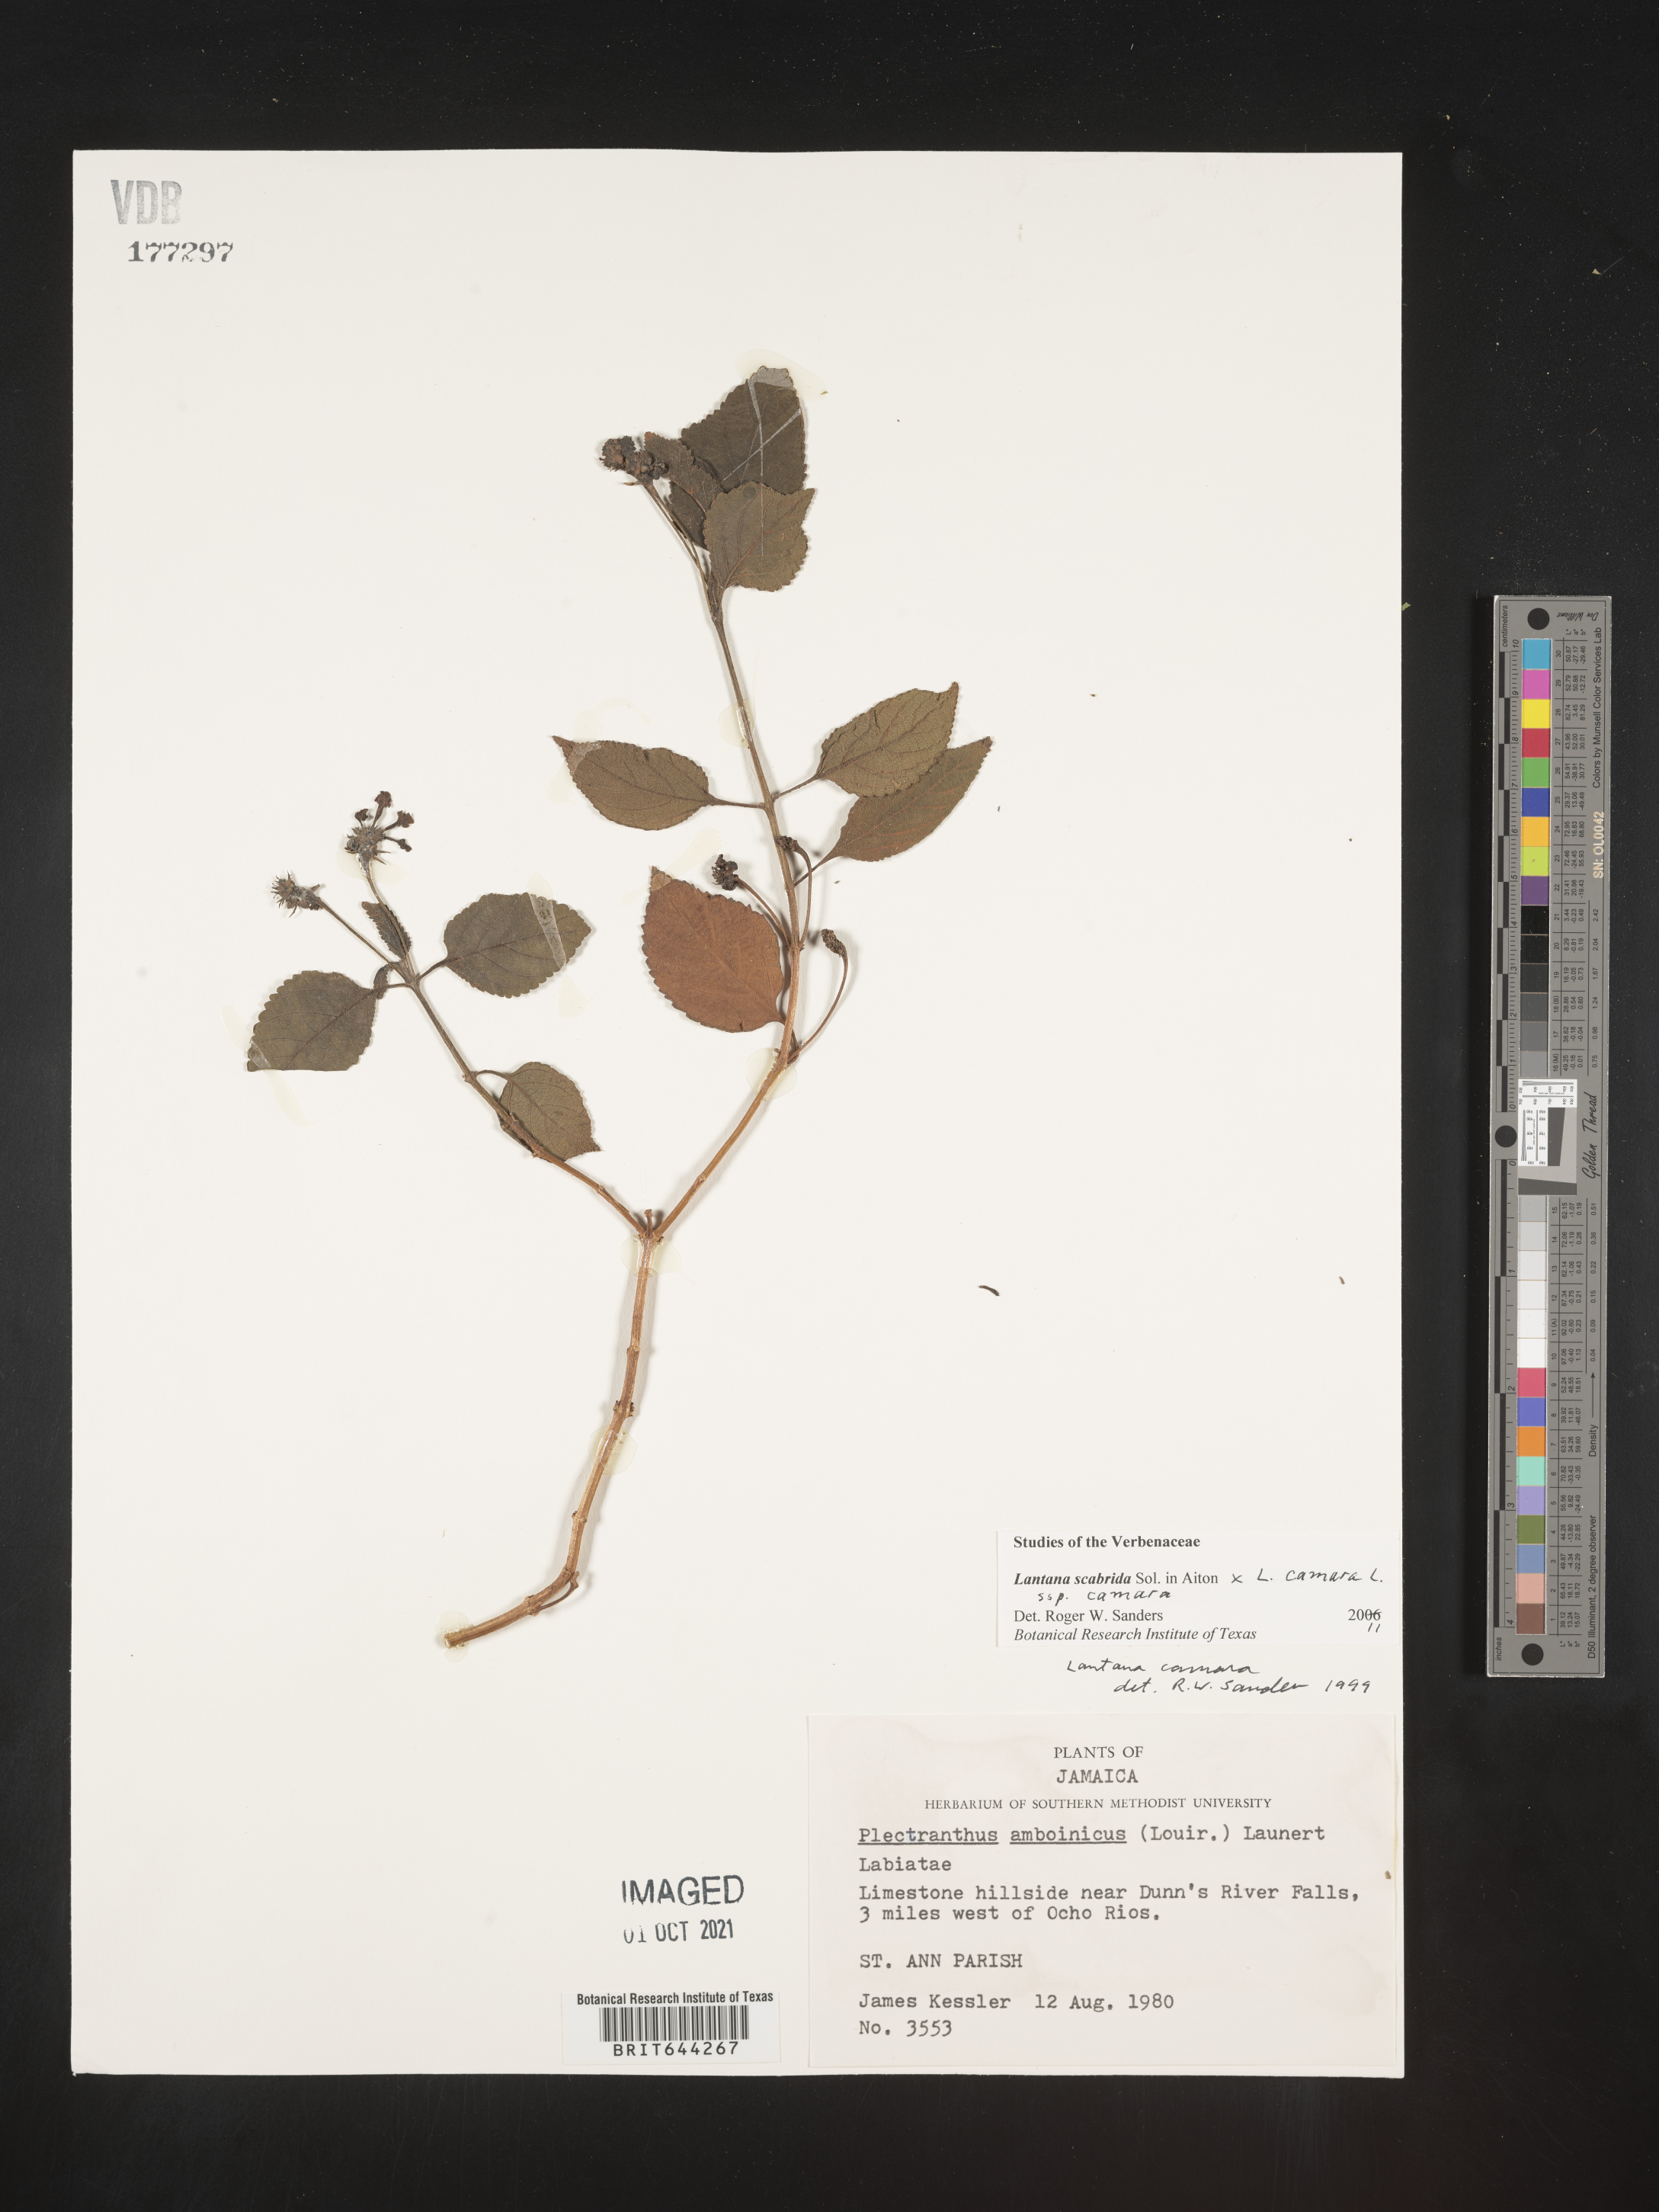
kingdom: Plantae
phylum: Tracheophyta
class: Magnoliopsida
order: Lamiales
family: Verbenaceae
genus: Lantana
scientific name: Lantana
